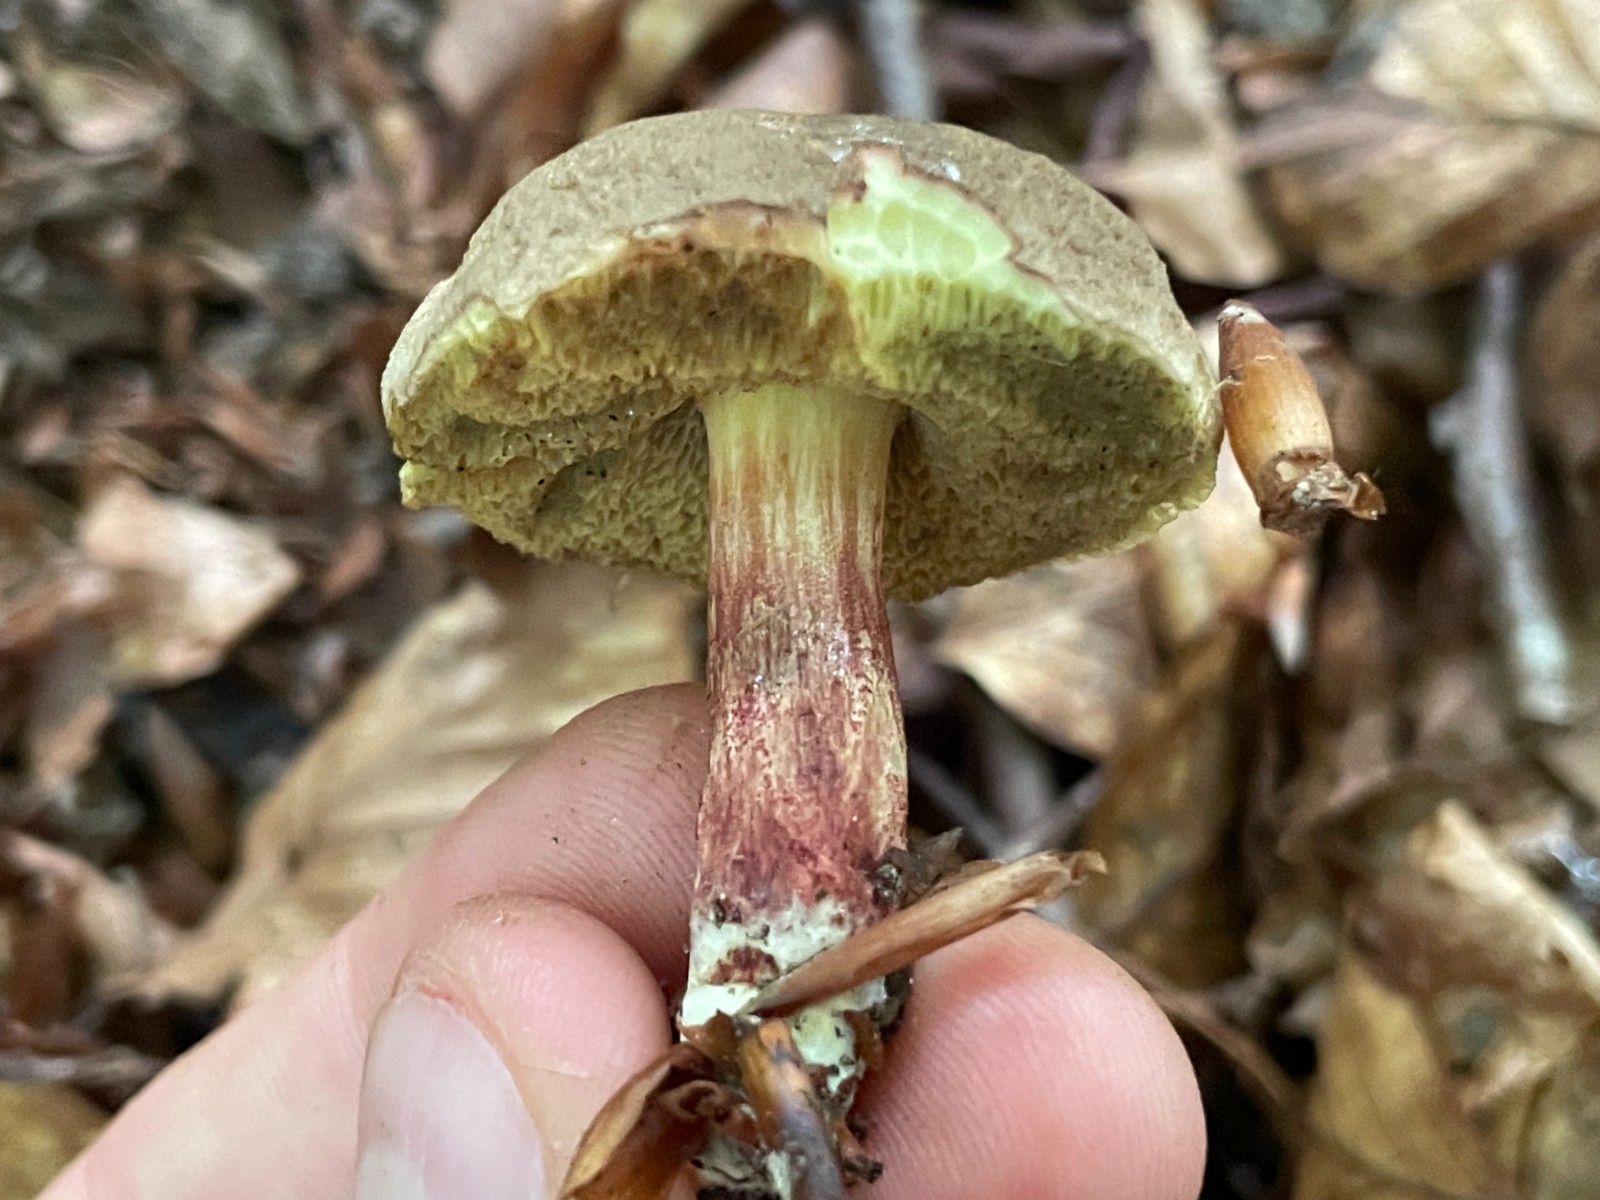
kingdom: Fungi
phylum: Basidiomycota
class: Agaricomycetes
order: Boletales
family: Boletaceae
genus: Xerocomellus
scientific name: Xerocomellus chrysenteron
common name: rødsprukken rørhat
